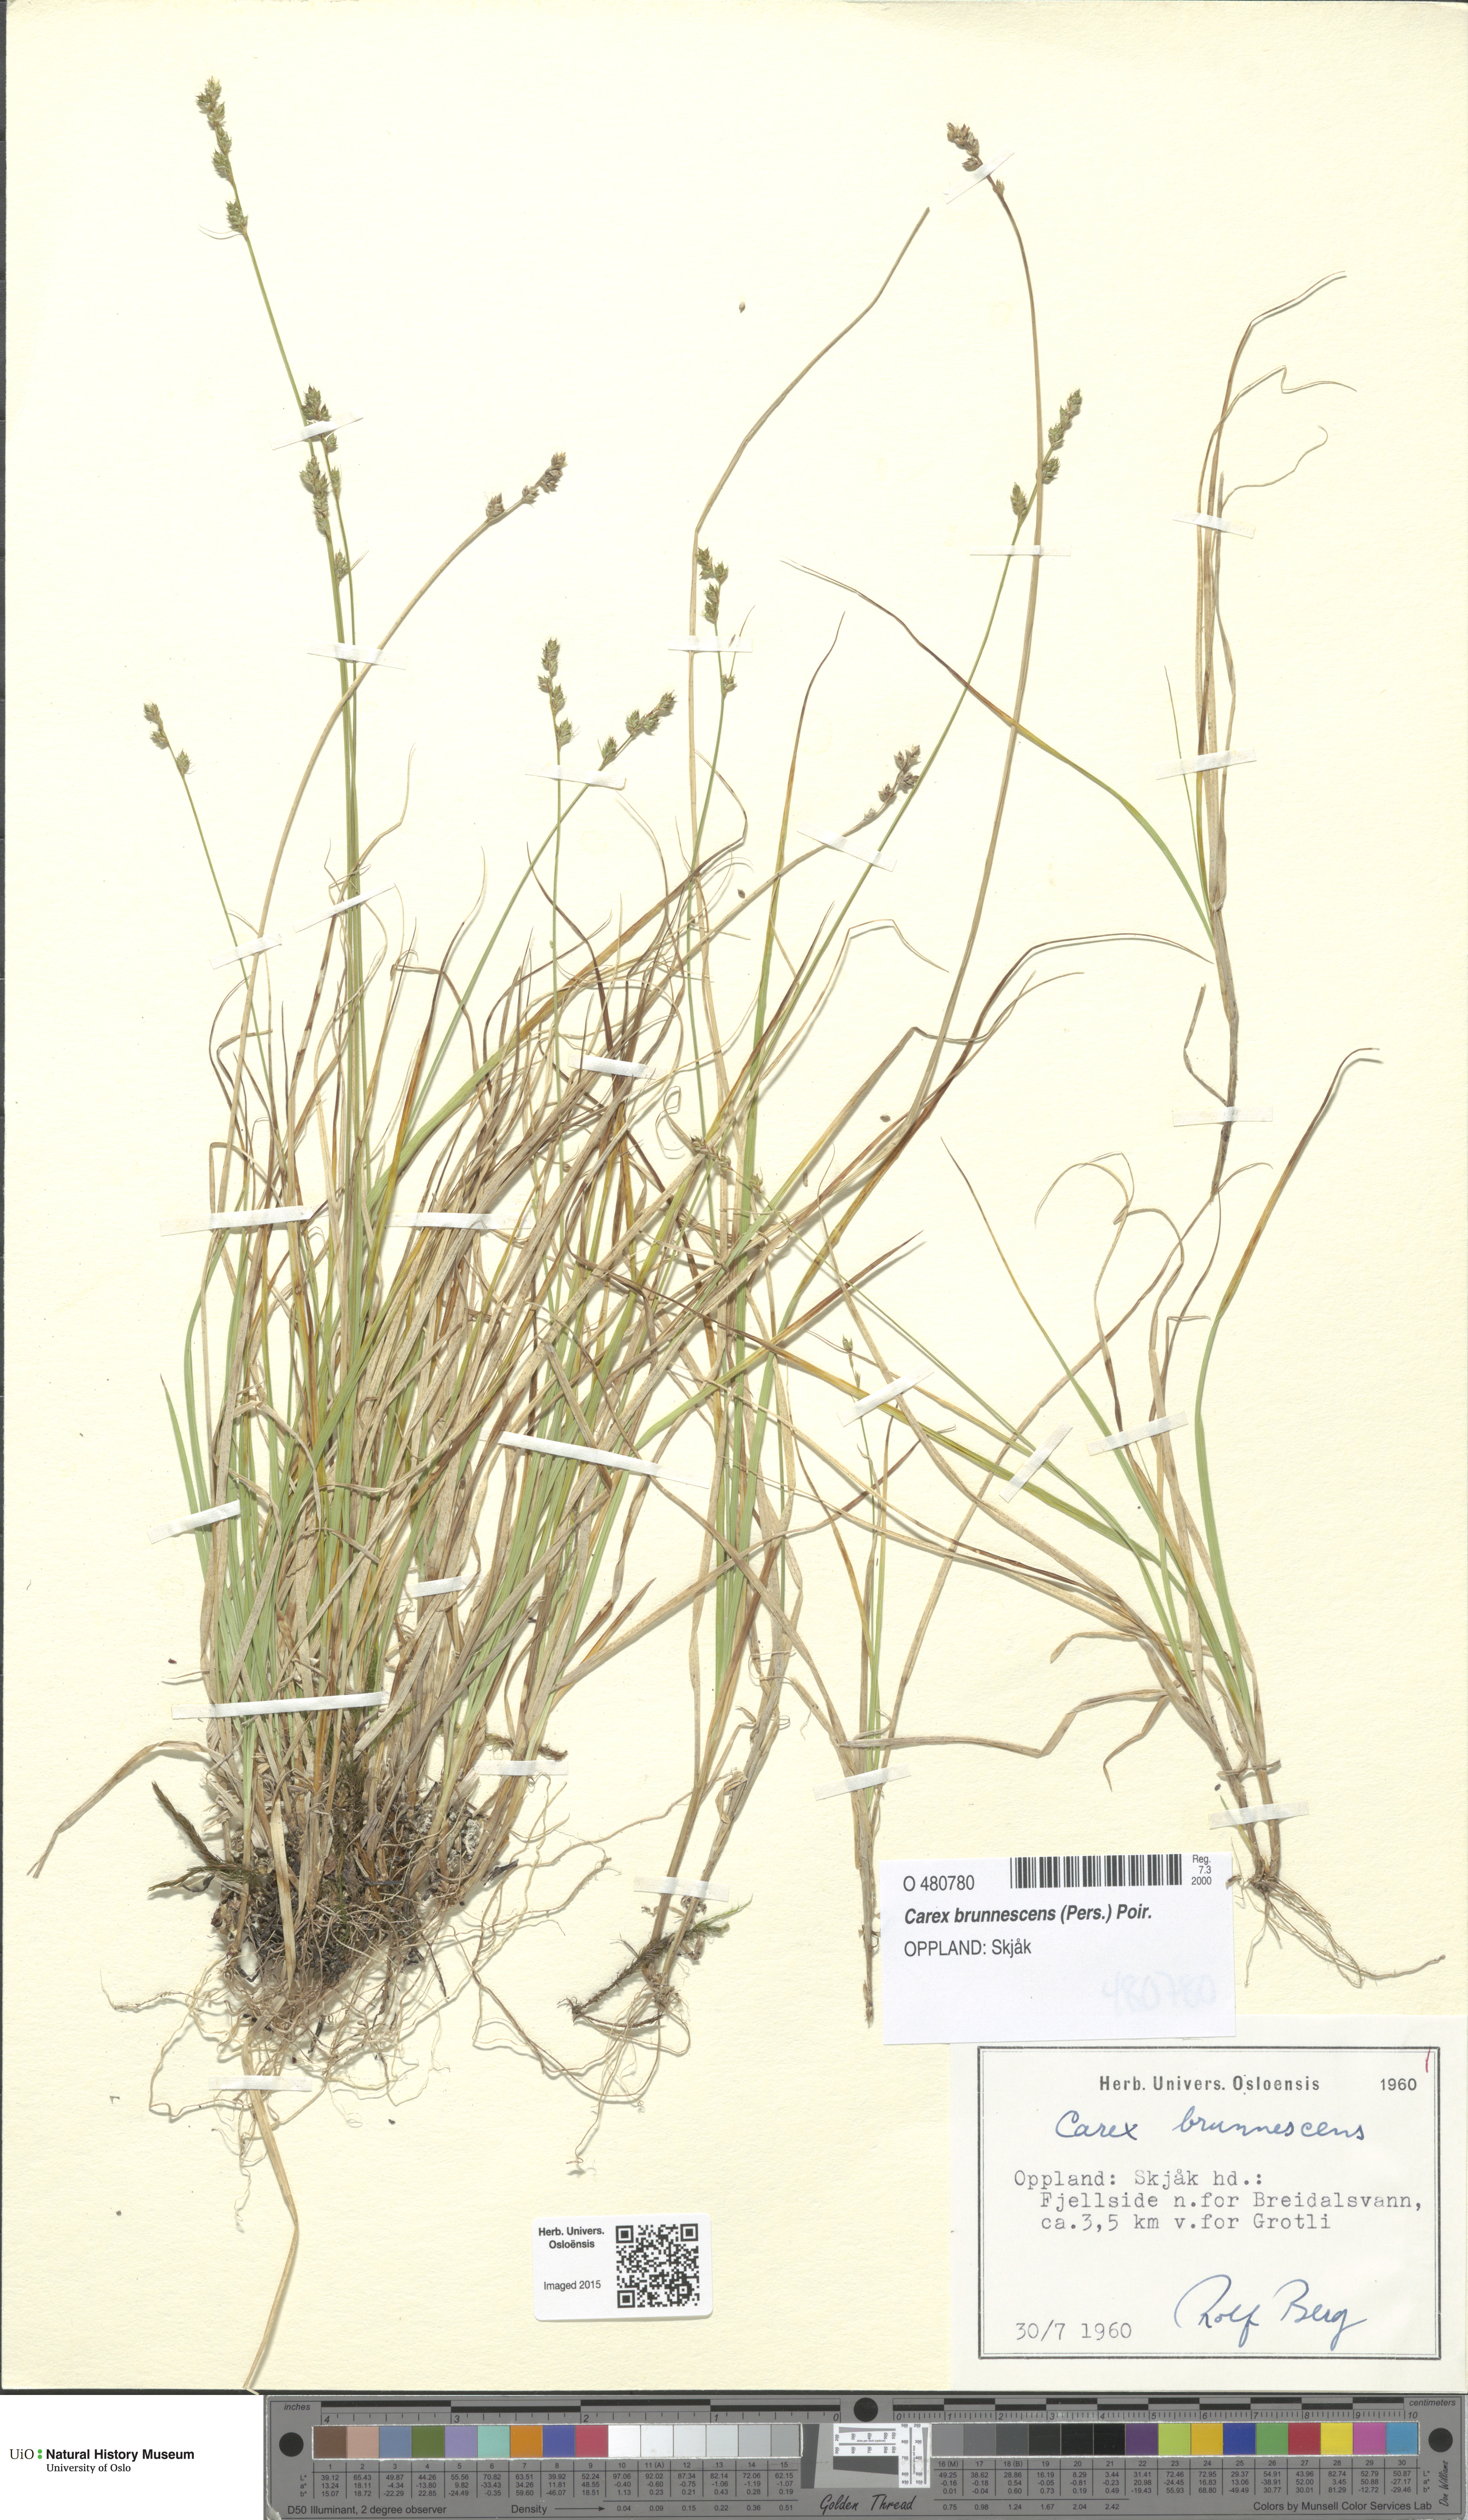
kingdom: Plantae
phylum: Tracheophyta
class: Liliopsida
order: Poales
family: Cyperaceae
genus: Carex
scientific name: Carex brunnescens
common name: Brown sedge
